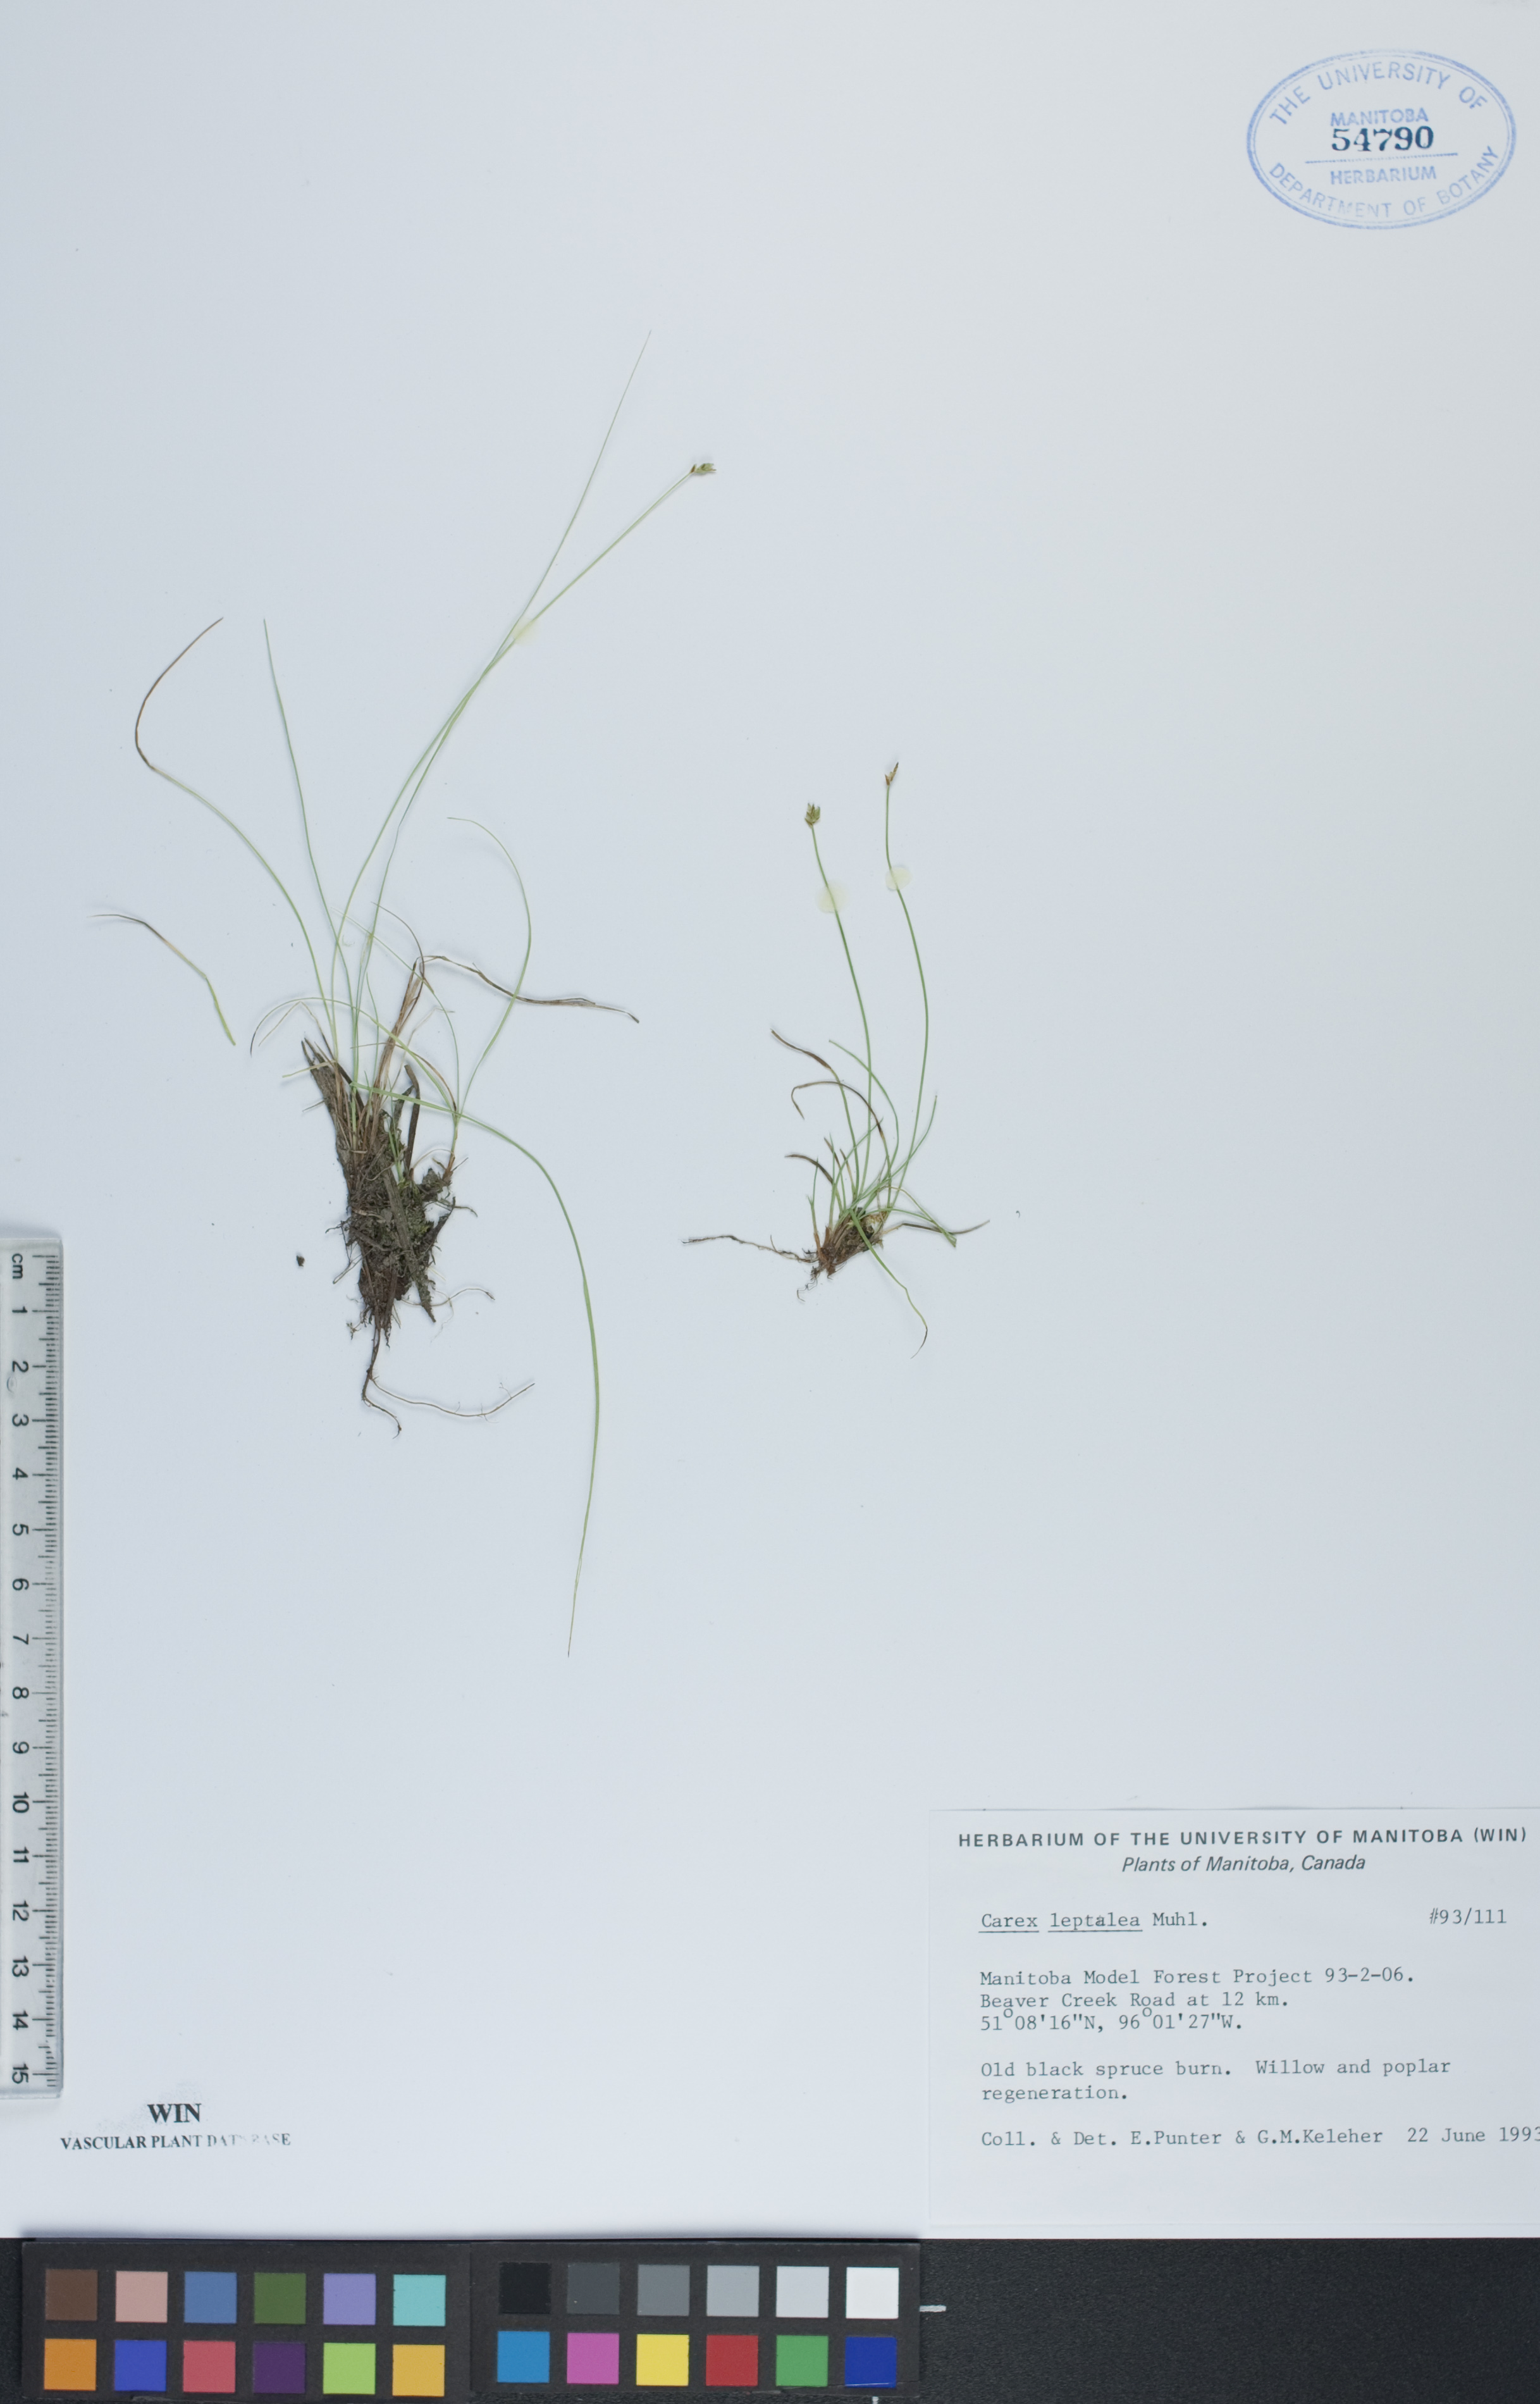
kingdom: Plantae
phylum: Tracheophyta
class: Liliopsida
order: Poales
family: Cyperaceae
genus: Carex
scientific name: Carex leptalea
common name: Bristly-stalked sedge
